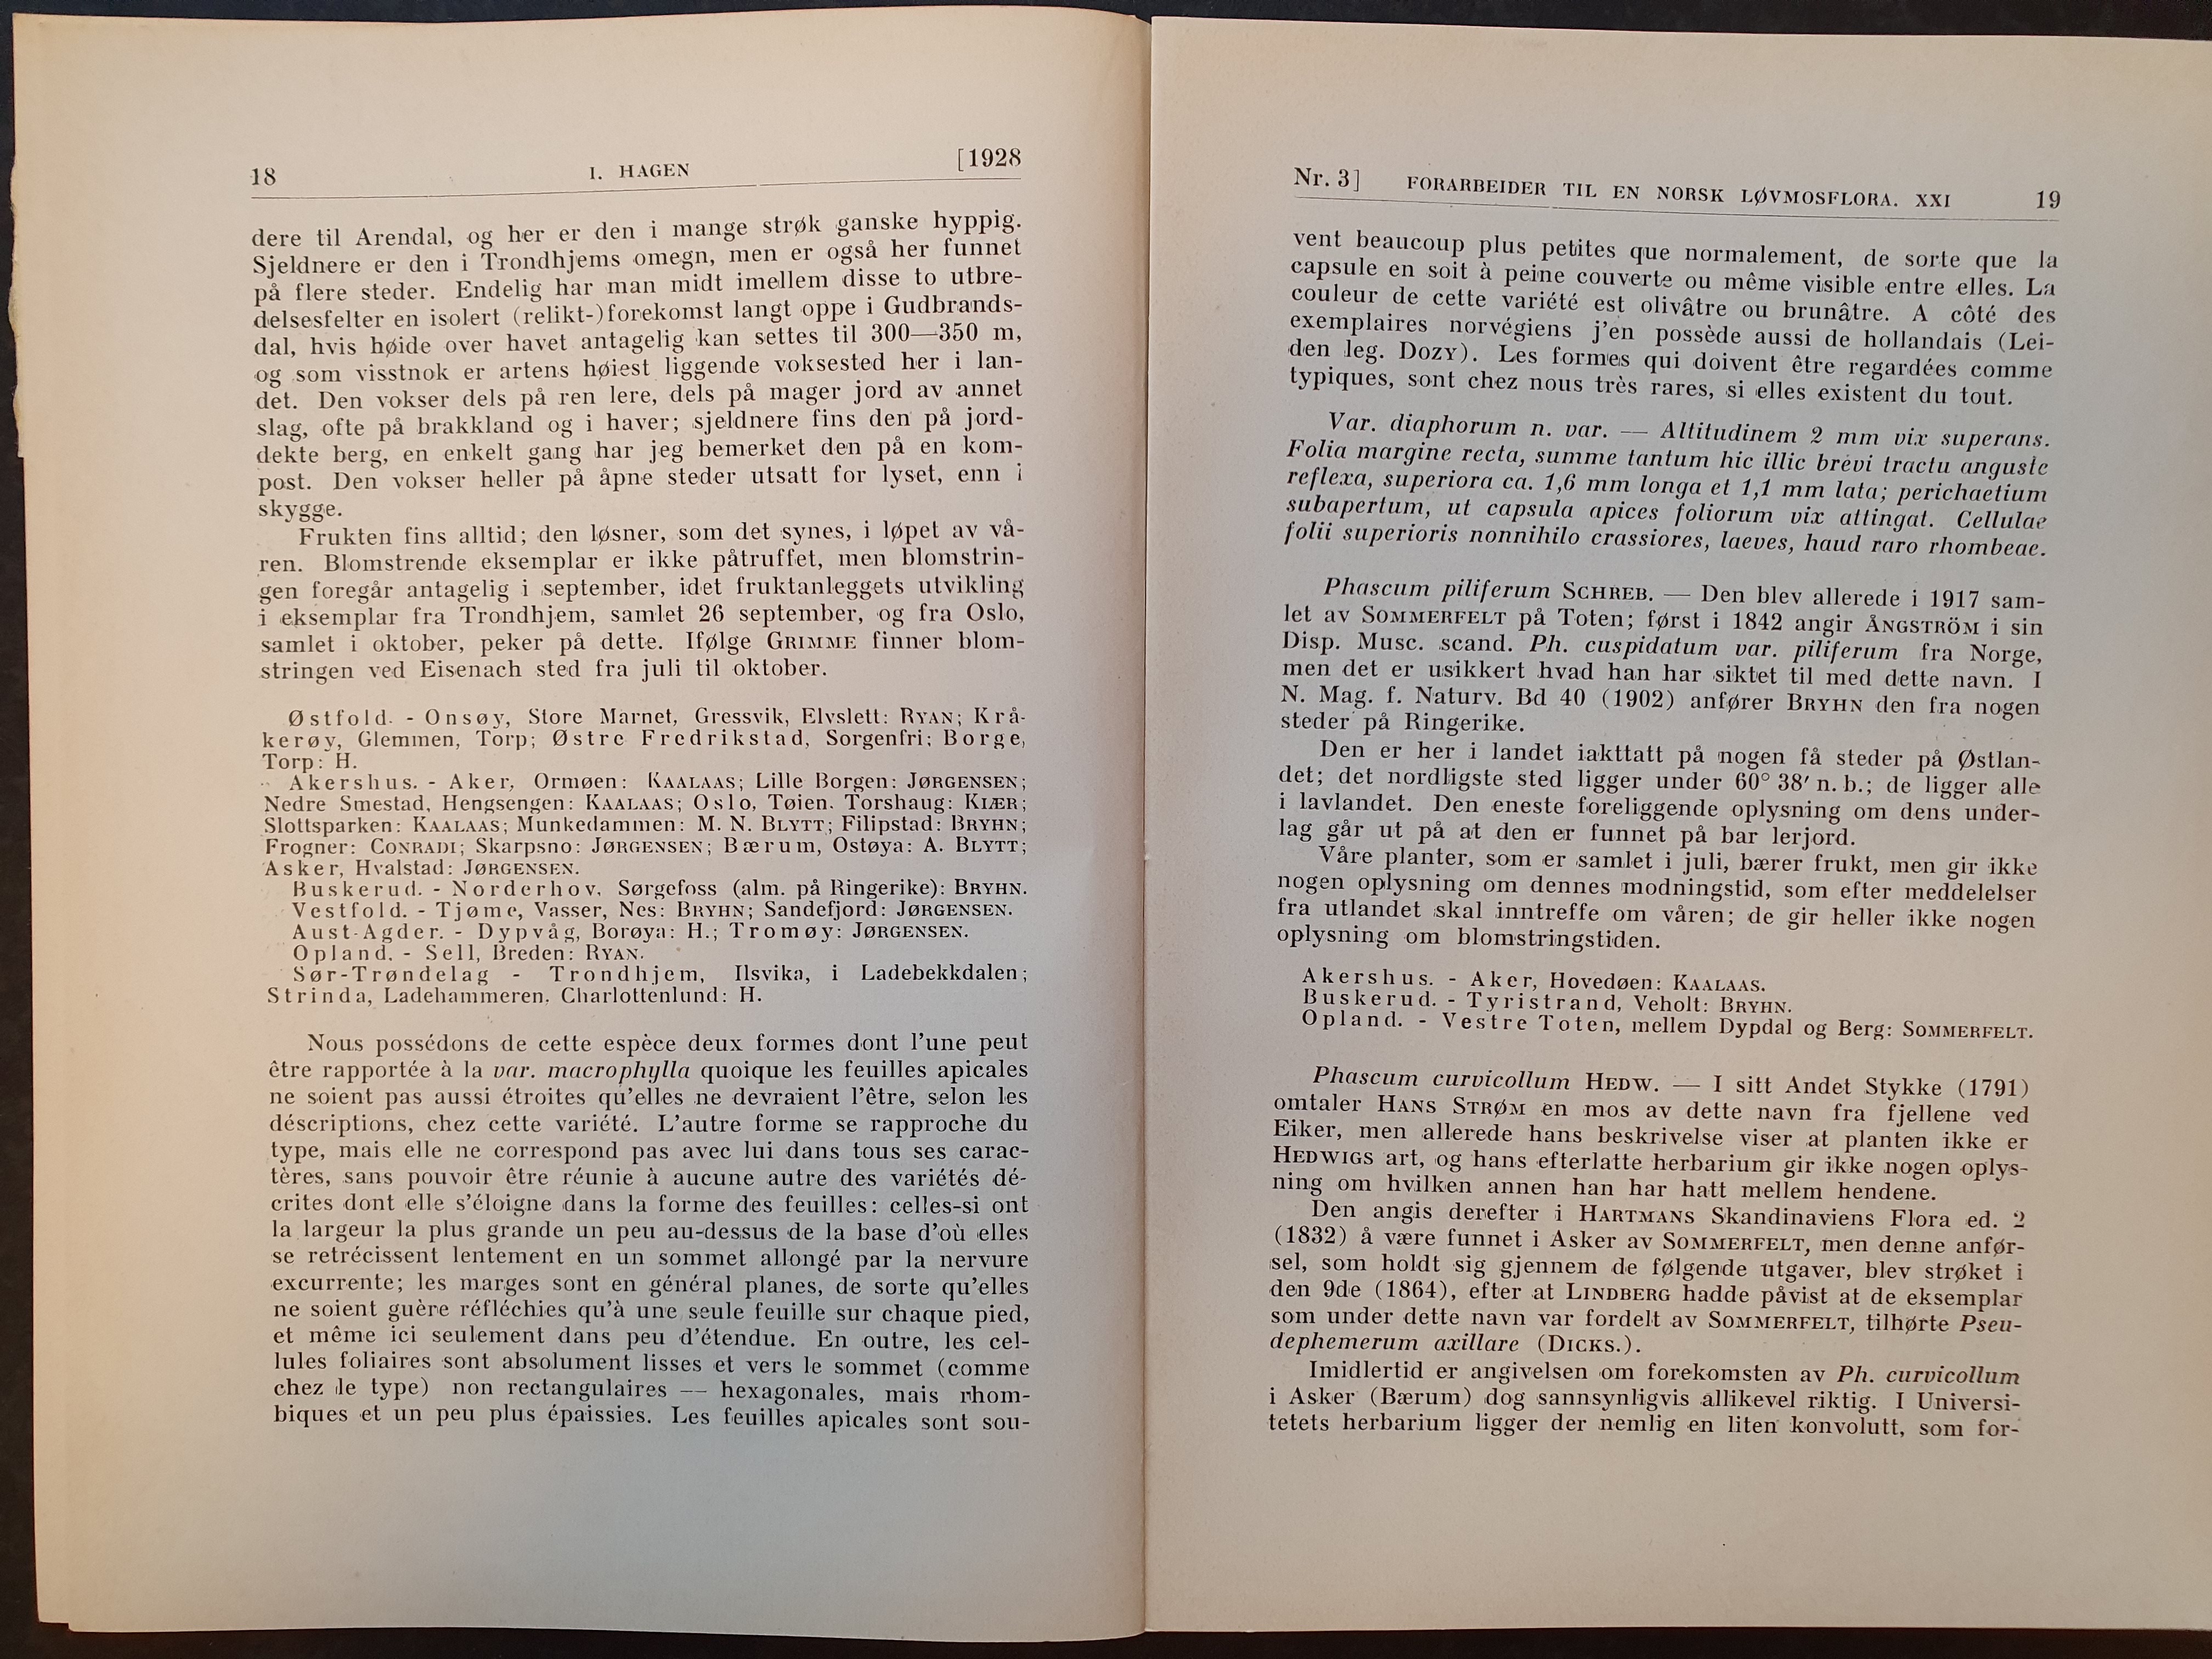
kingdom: Plantae
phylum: Bryophyta
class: Bryopsida
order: Pottiales
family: Pottiaceae
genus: Tortula
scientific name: Tortula acaulon
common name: Cuspidate earth moss
